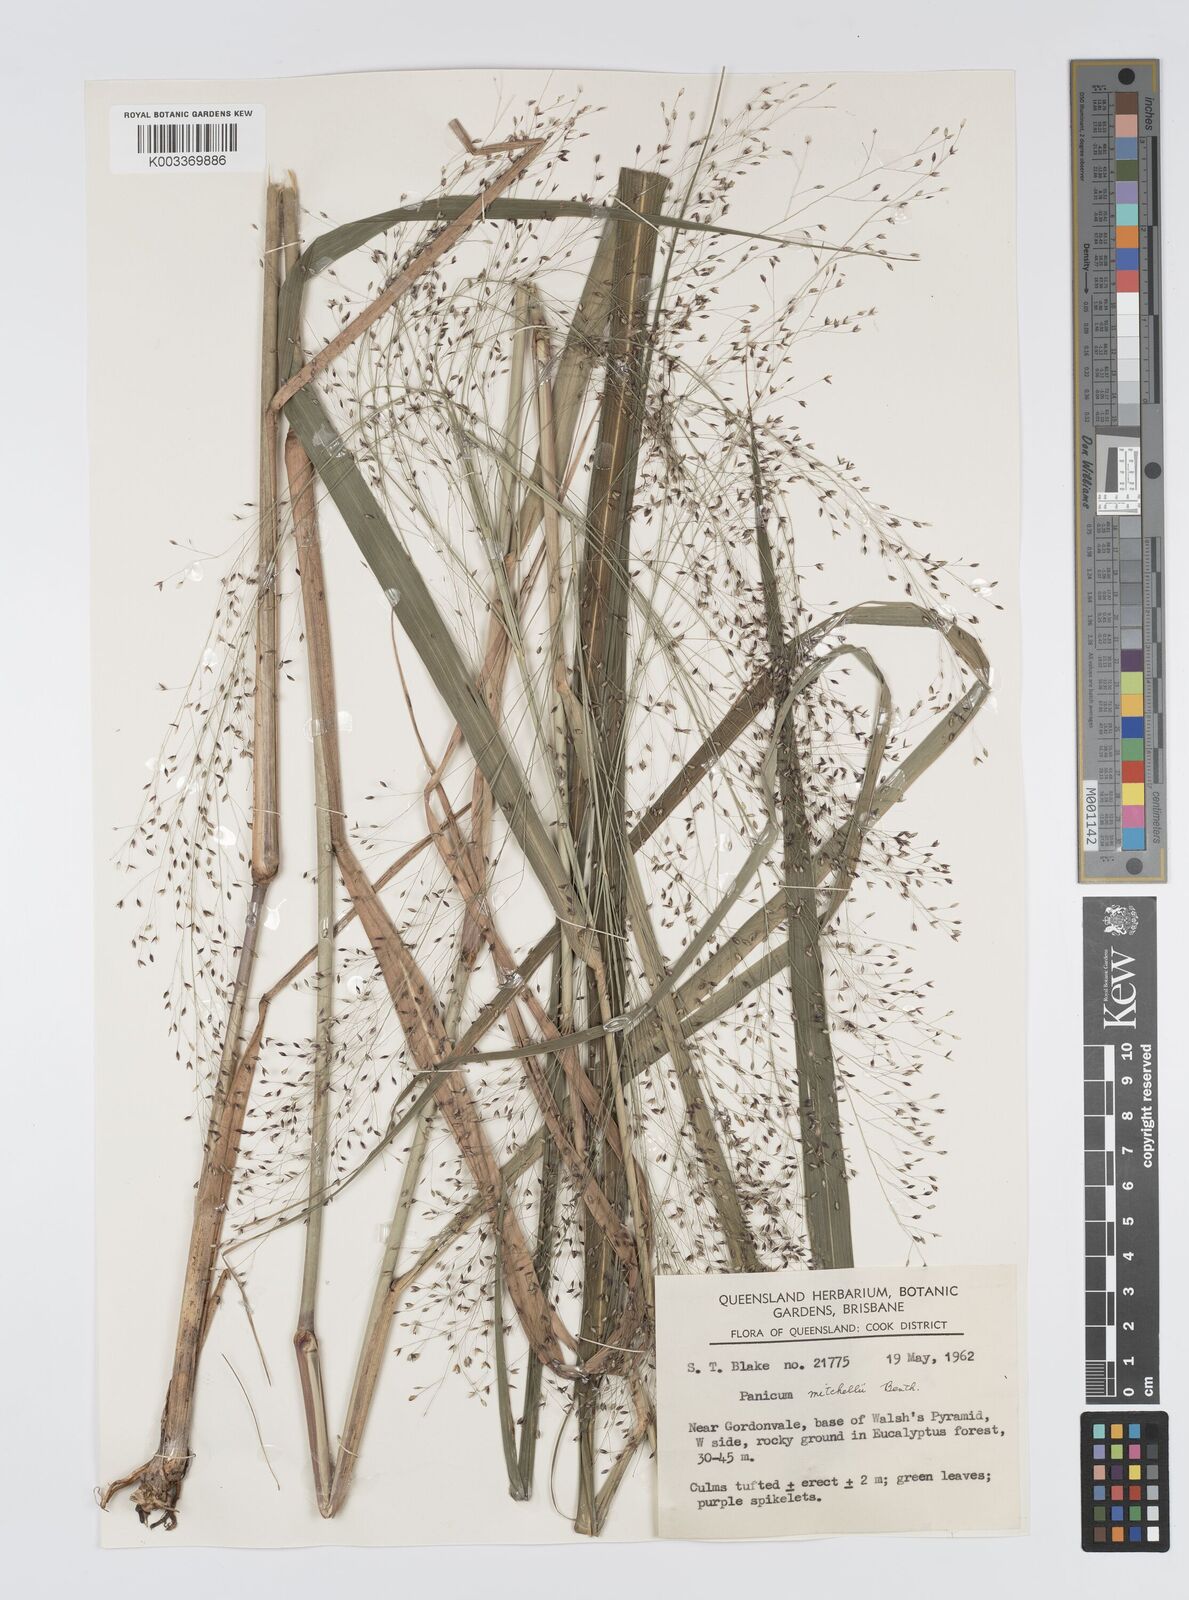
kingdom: Plantae
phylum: Tracheophyta
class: Liliopsida
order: Poales
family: Poaceae
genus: Panicum
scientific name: Panicum mitchellii
